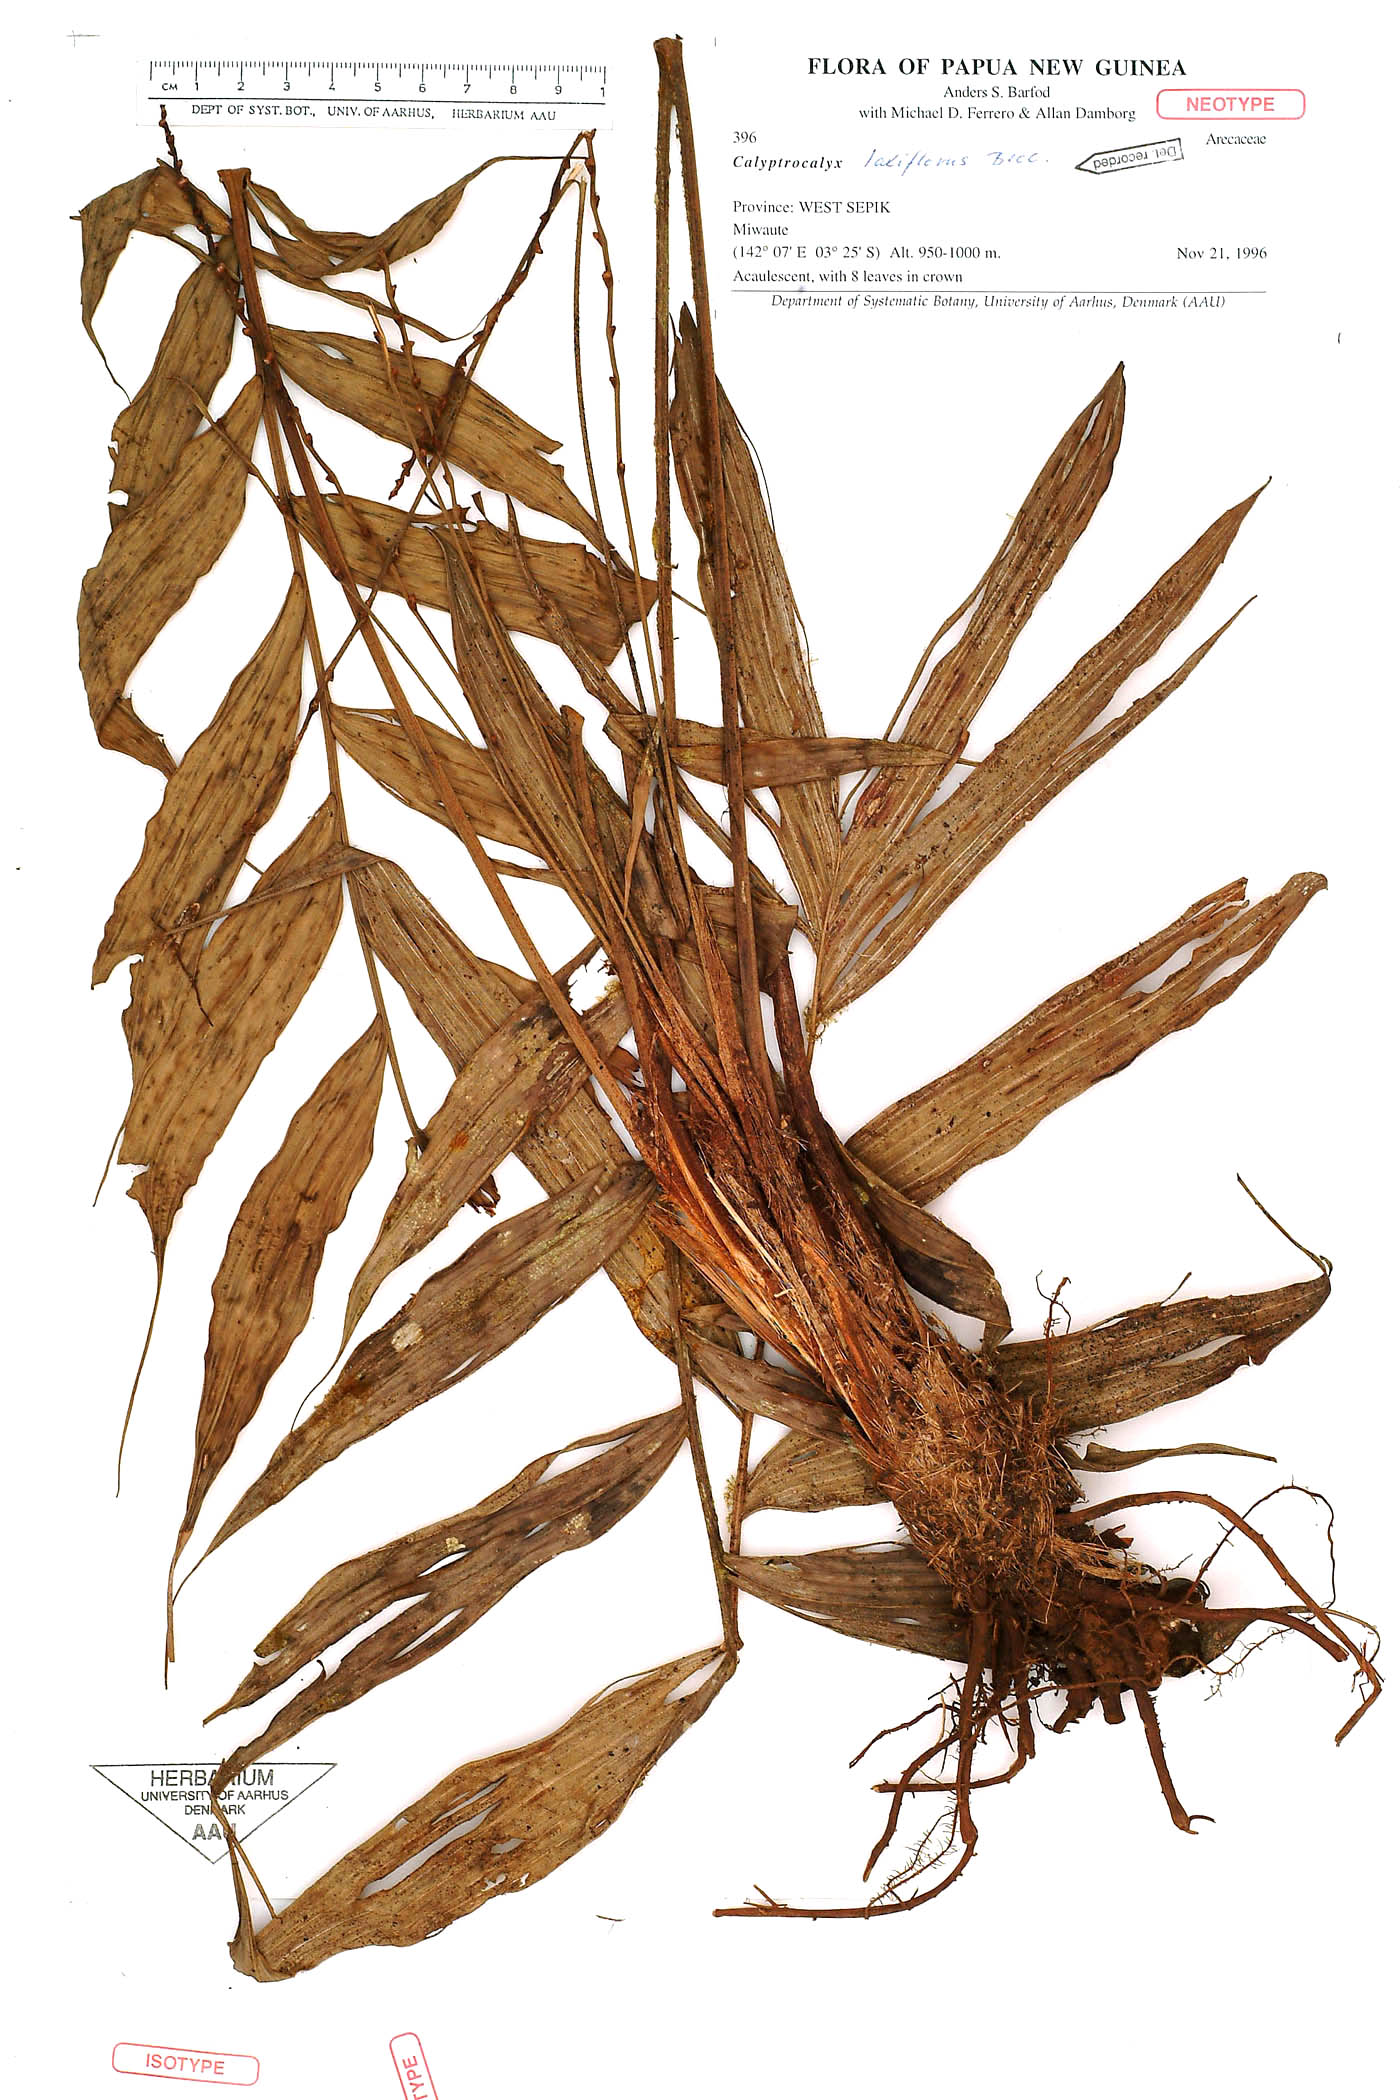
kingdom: Plantae
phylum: Tracheophyta
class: Liliopsida
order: Arecales
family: Arecaceae
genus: Calyptrocalyx
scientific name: Calyptrocalyx laxiflorus
